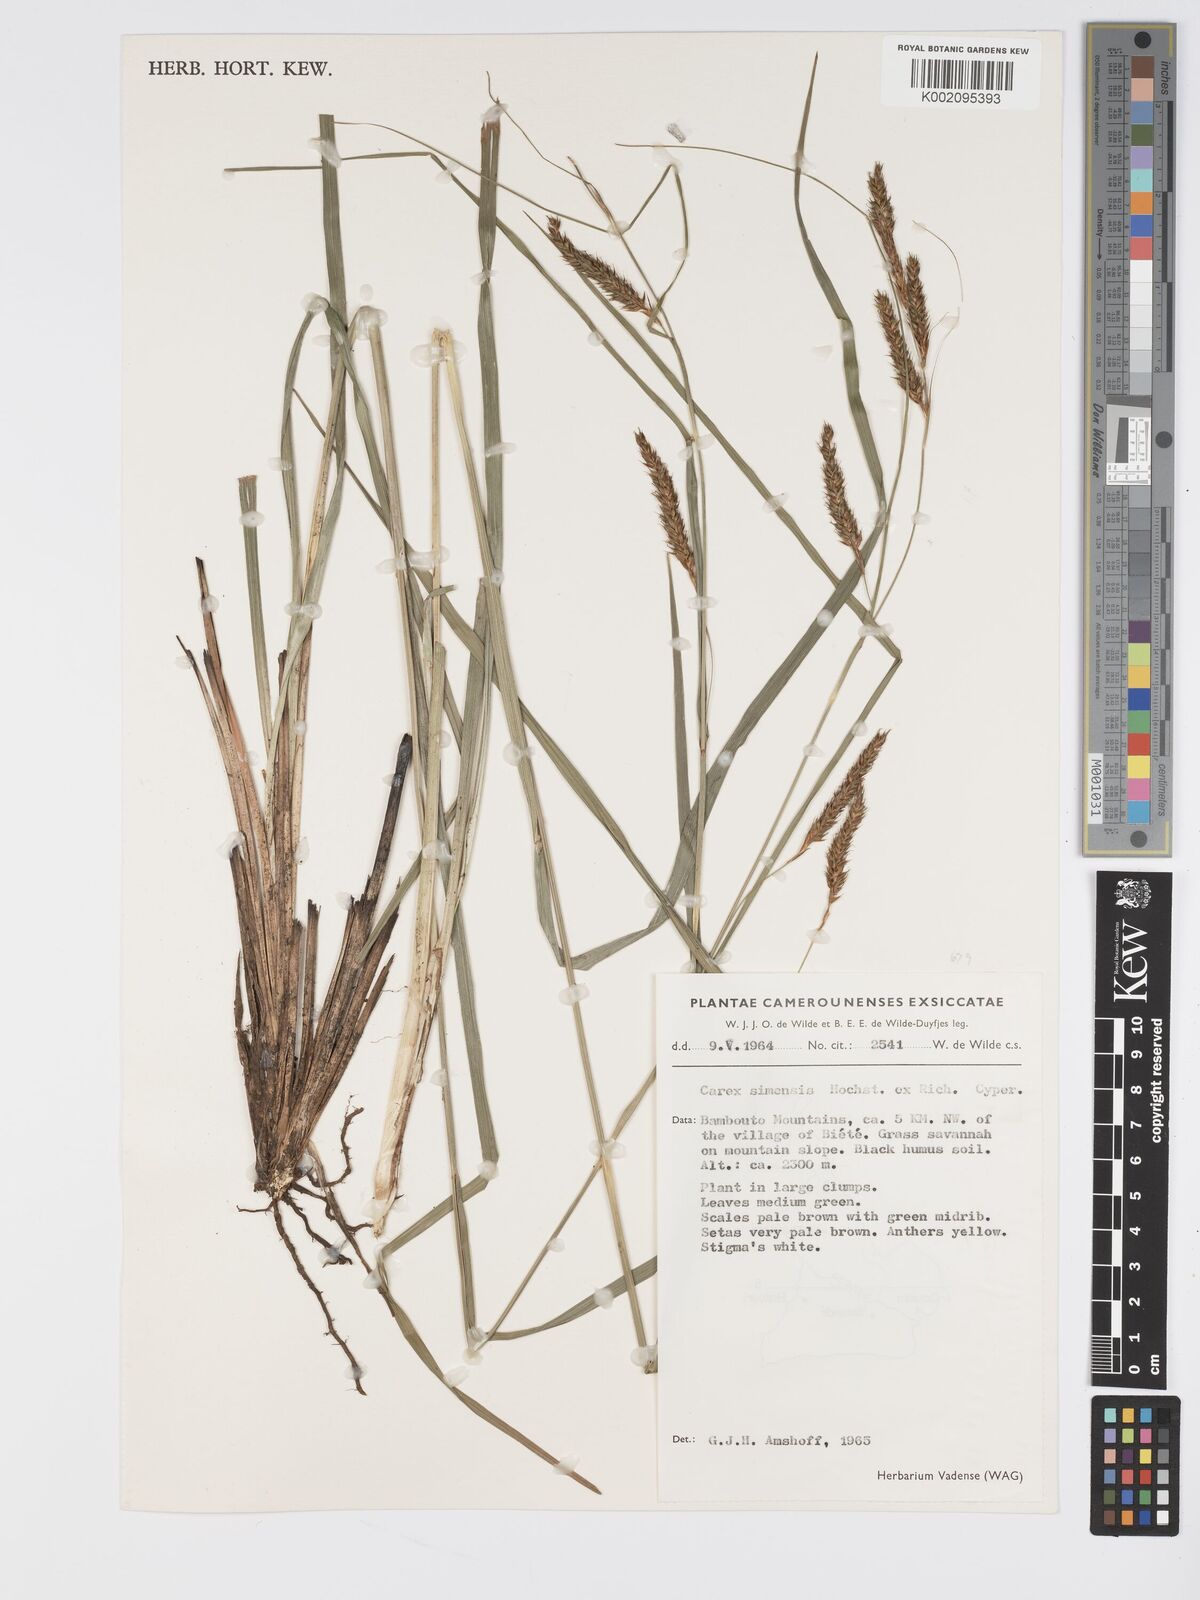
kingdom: Plantae
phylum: Tracheophyta
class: Liliopsida
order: Poales
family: Cyperaceae
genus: Carex
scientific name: Carex simensis
